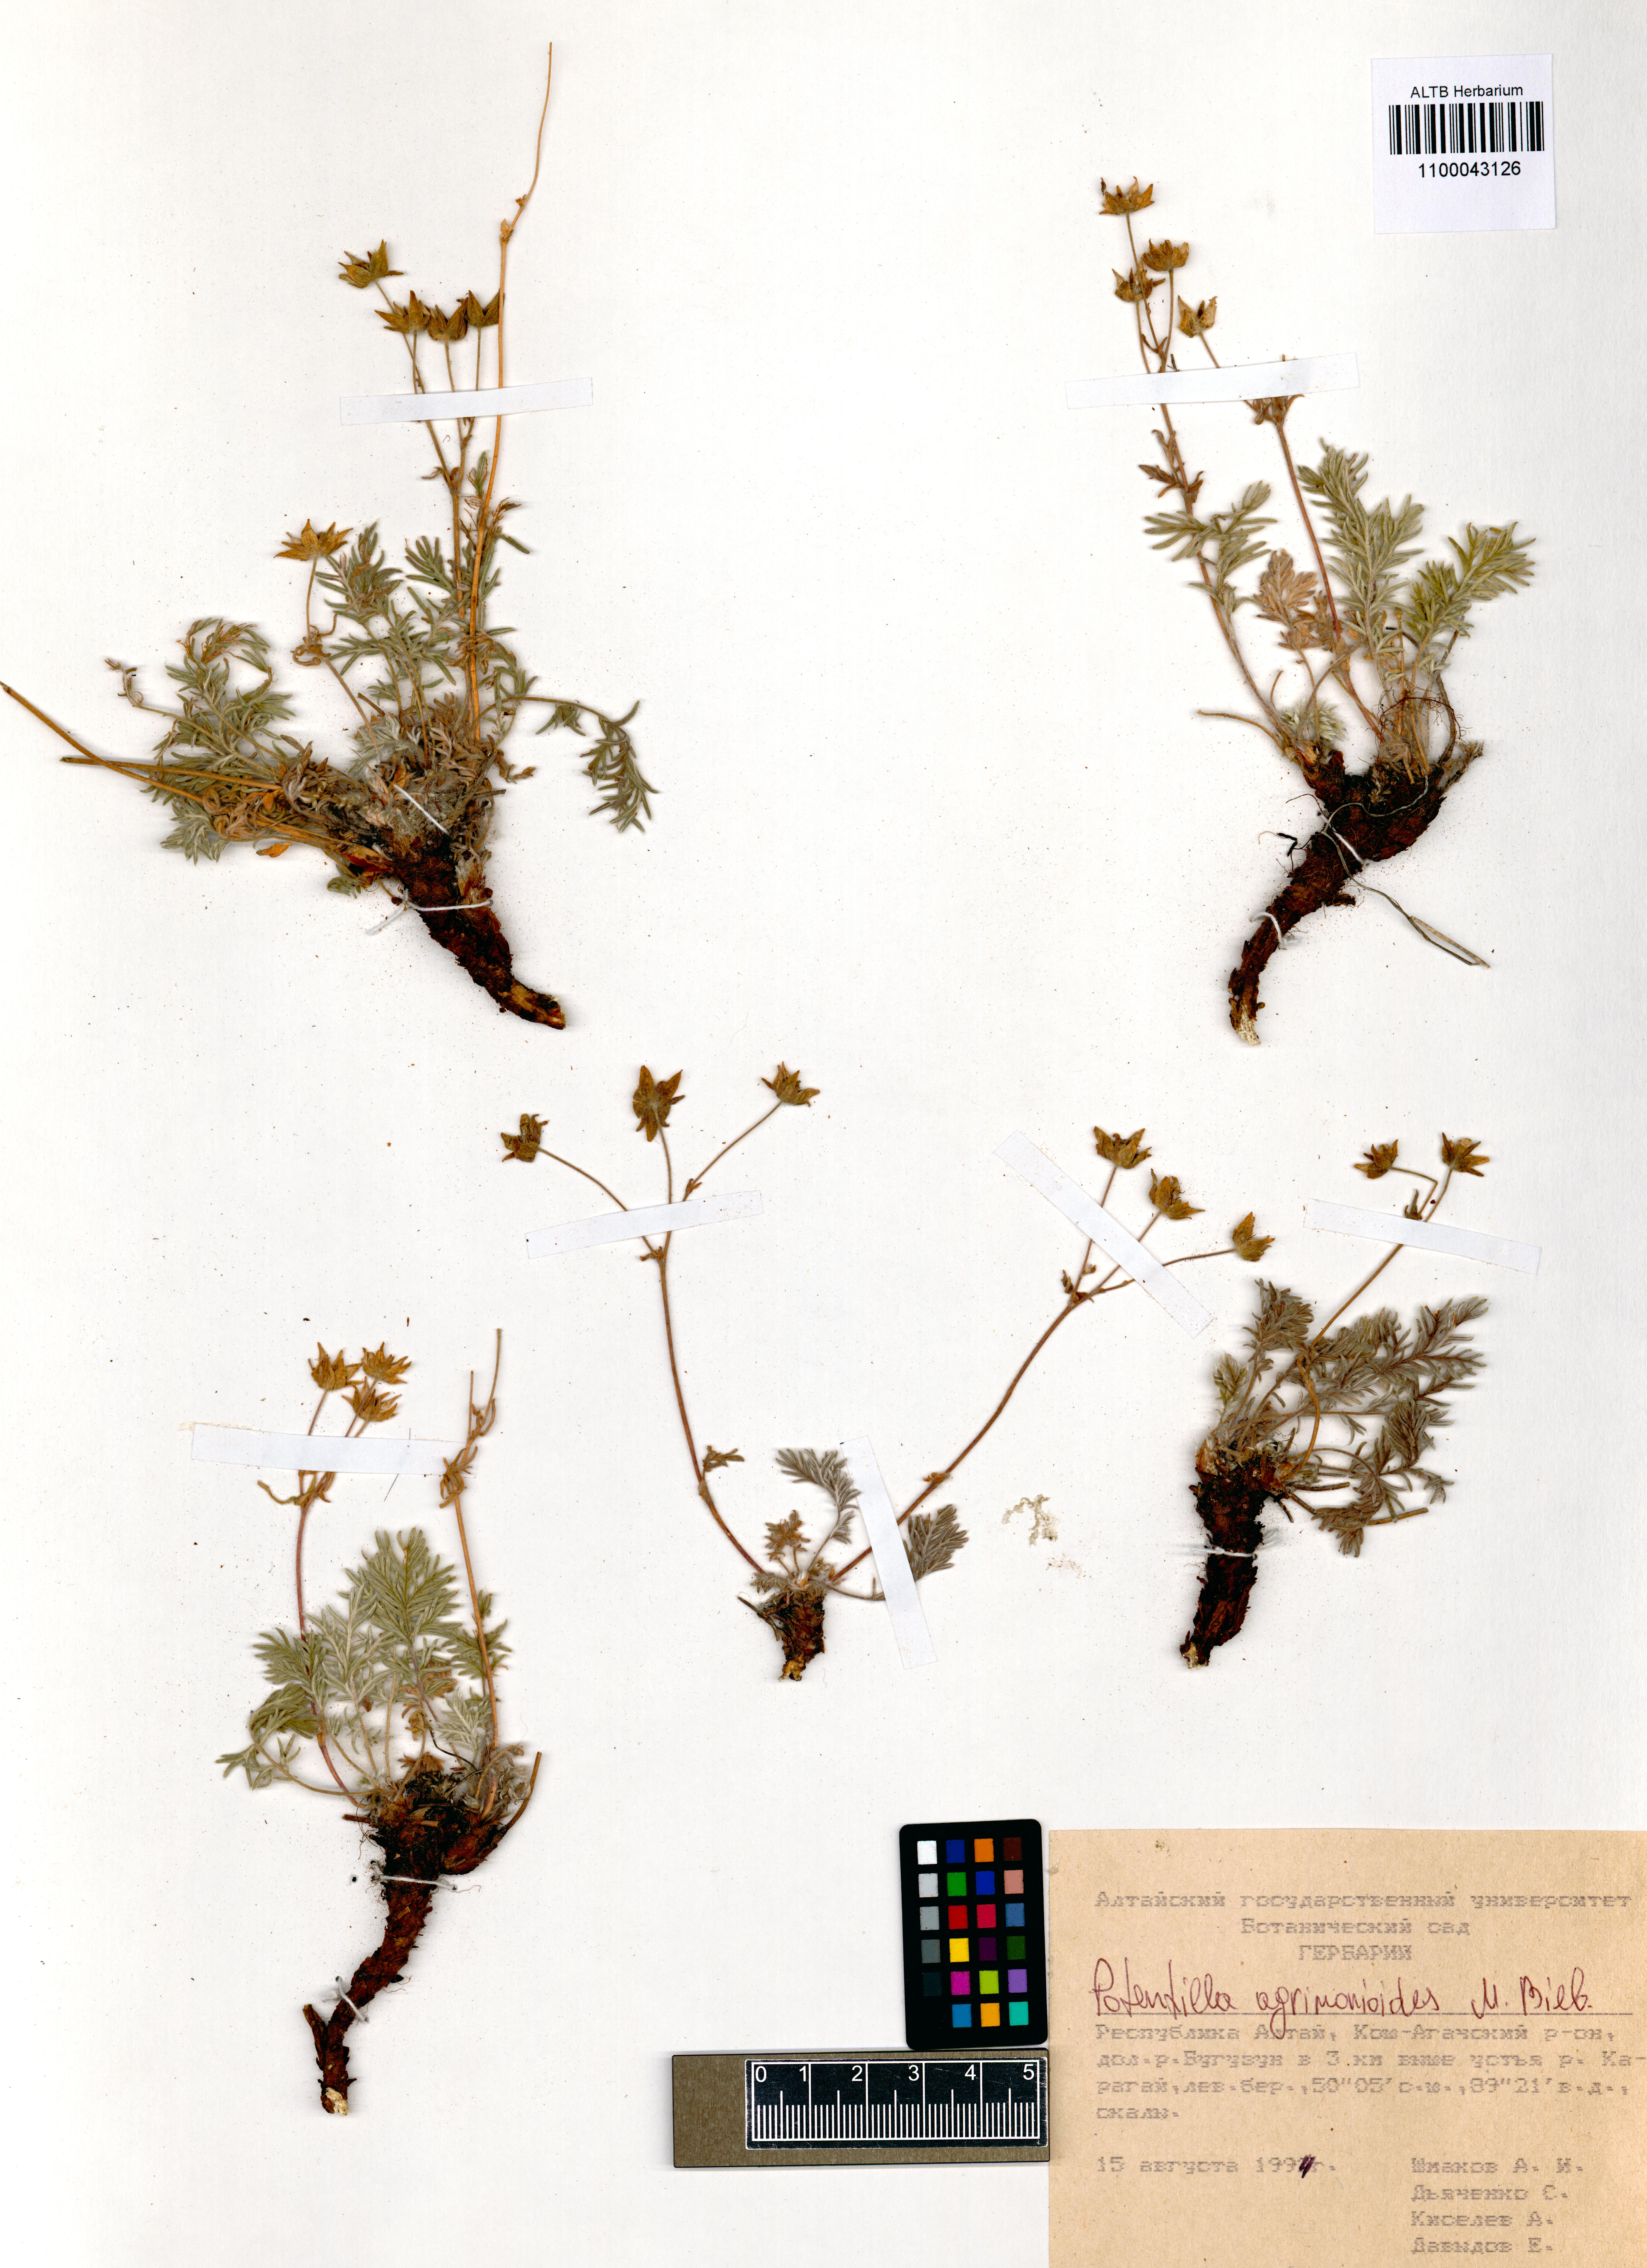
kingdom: Plantae
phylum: Tracheophyta
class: Magnoliopsida
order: Rosales
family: Rosaceae
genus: Potentilla
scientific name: Potentilla agrimonioides
